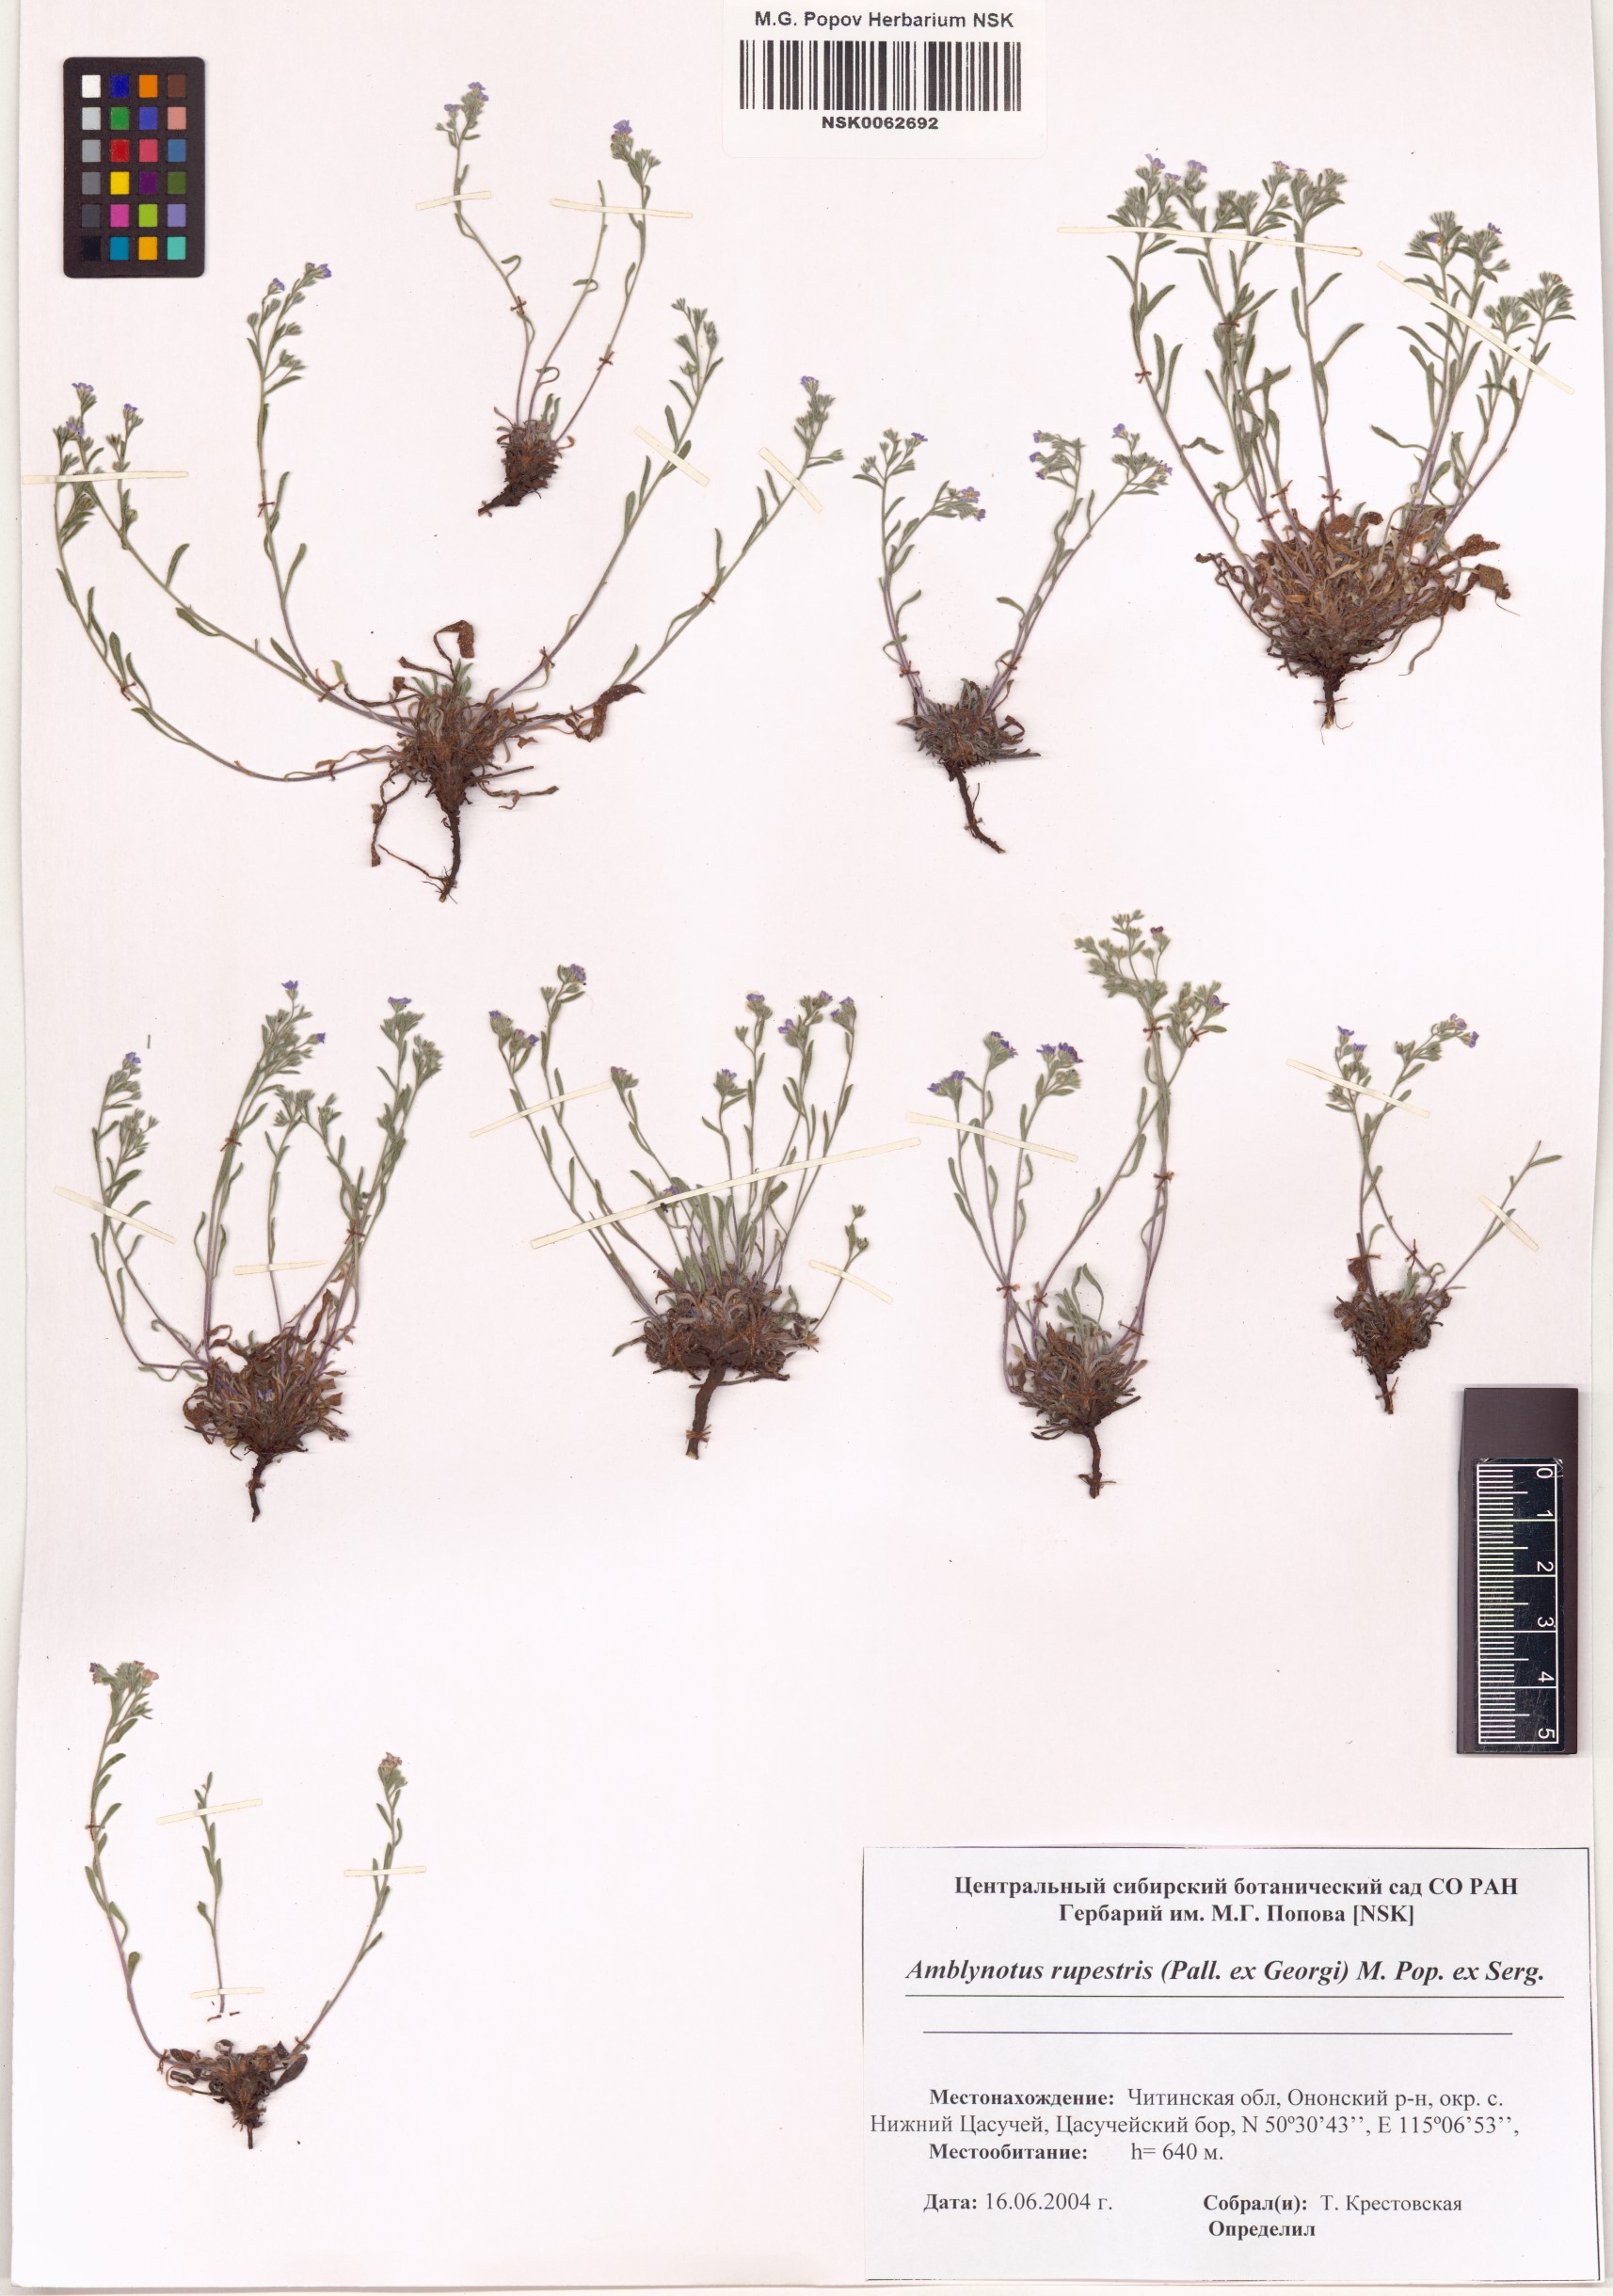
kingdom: Plantae
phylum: Tracheophyta
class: Magnoliopsida
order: Boraginales
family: Boraginaceae
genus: Eritrichium
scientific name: Eritrichium rupestre
